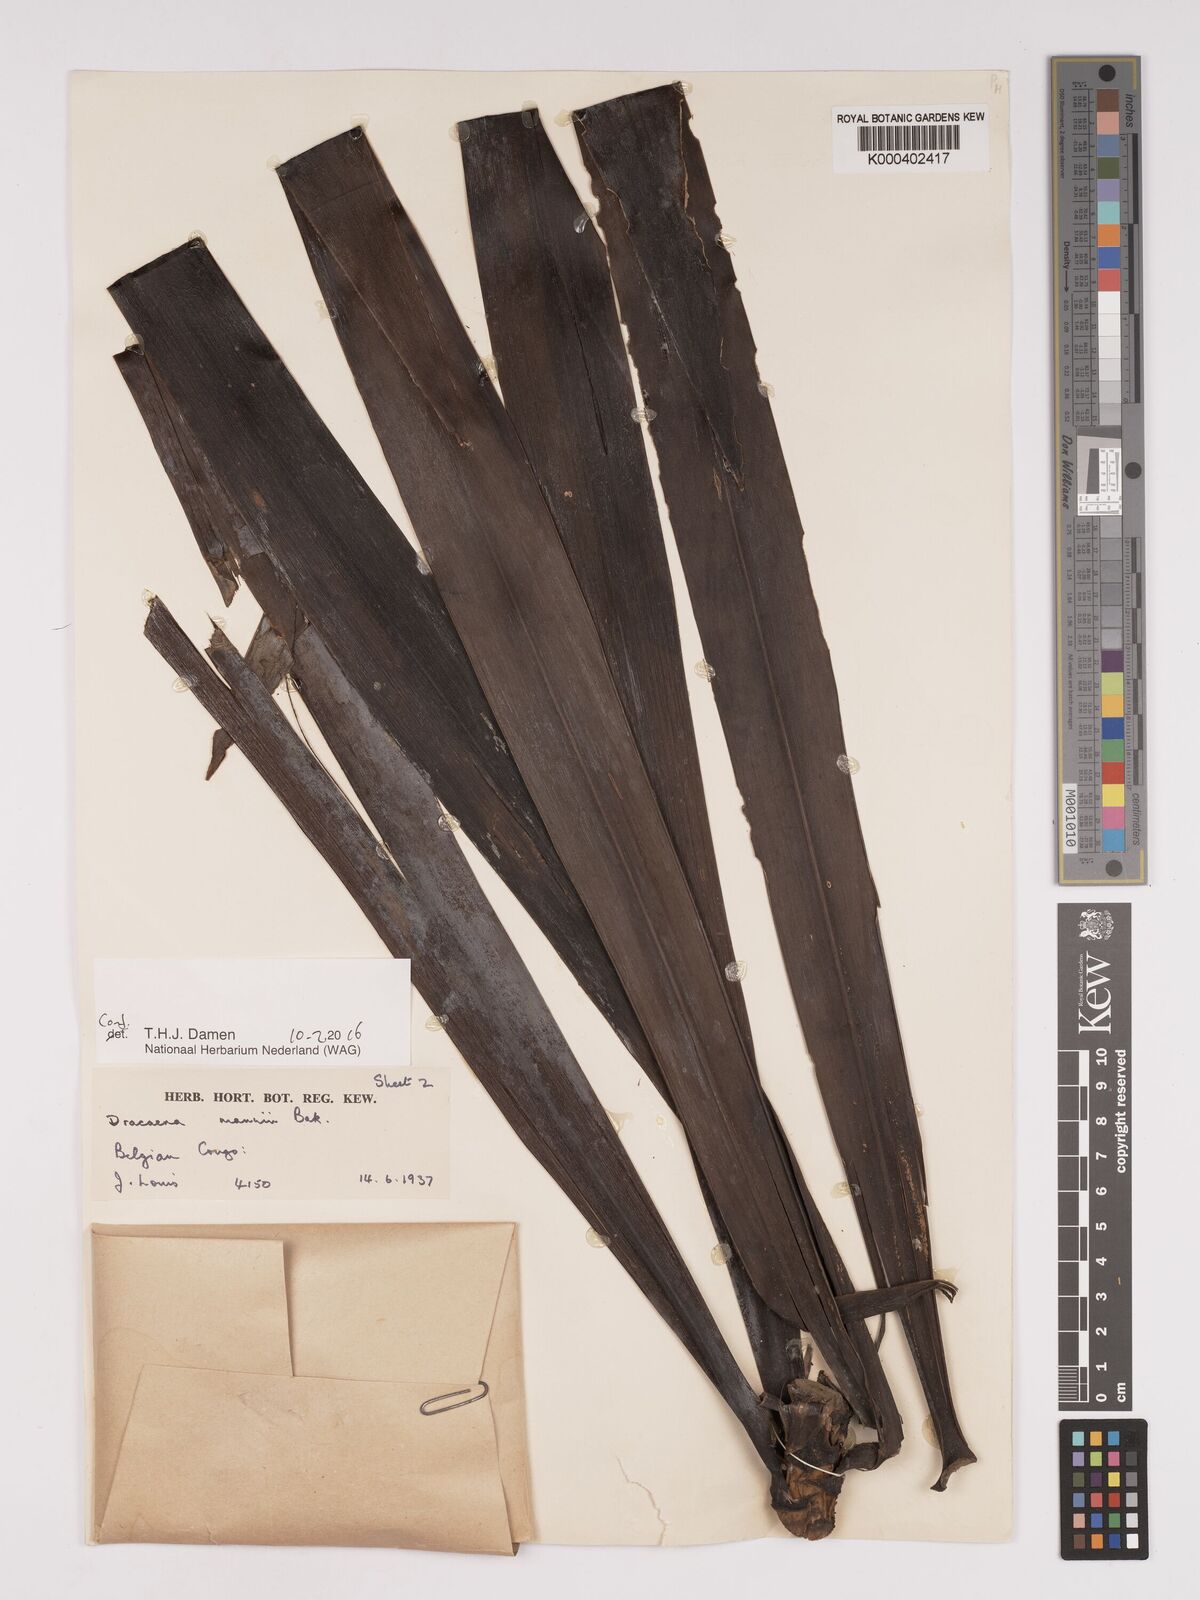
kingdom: Plantae
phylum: Tracheophyta
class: Liliopsida
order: Asparagales
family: Asparagaceae
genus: Dracaena
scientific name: Dracaena mannii
